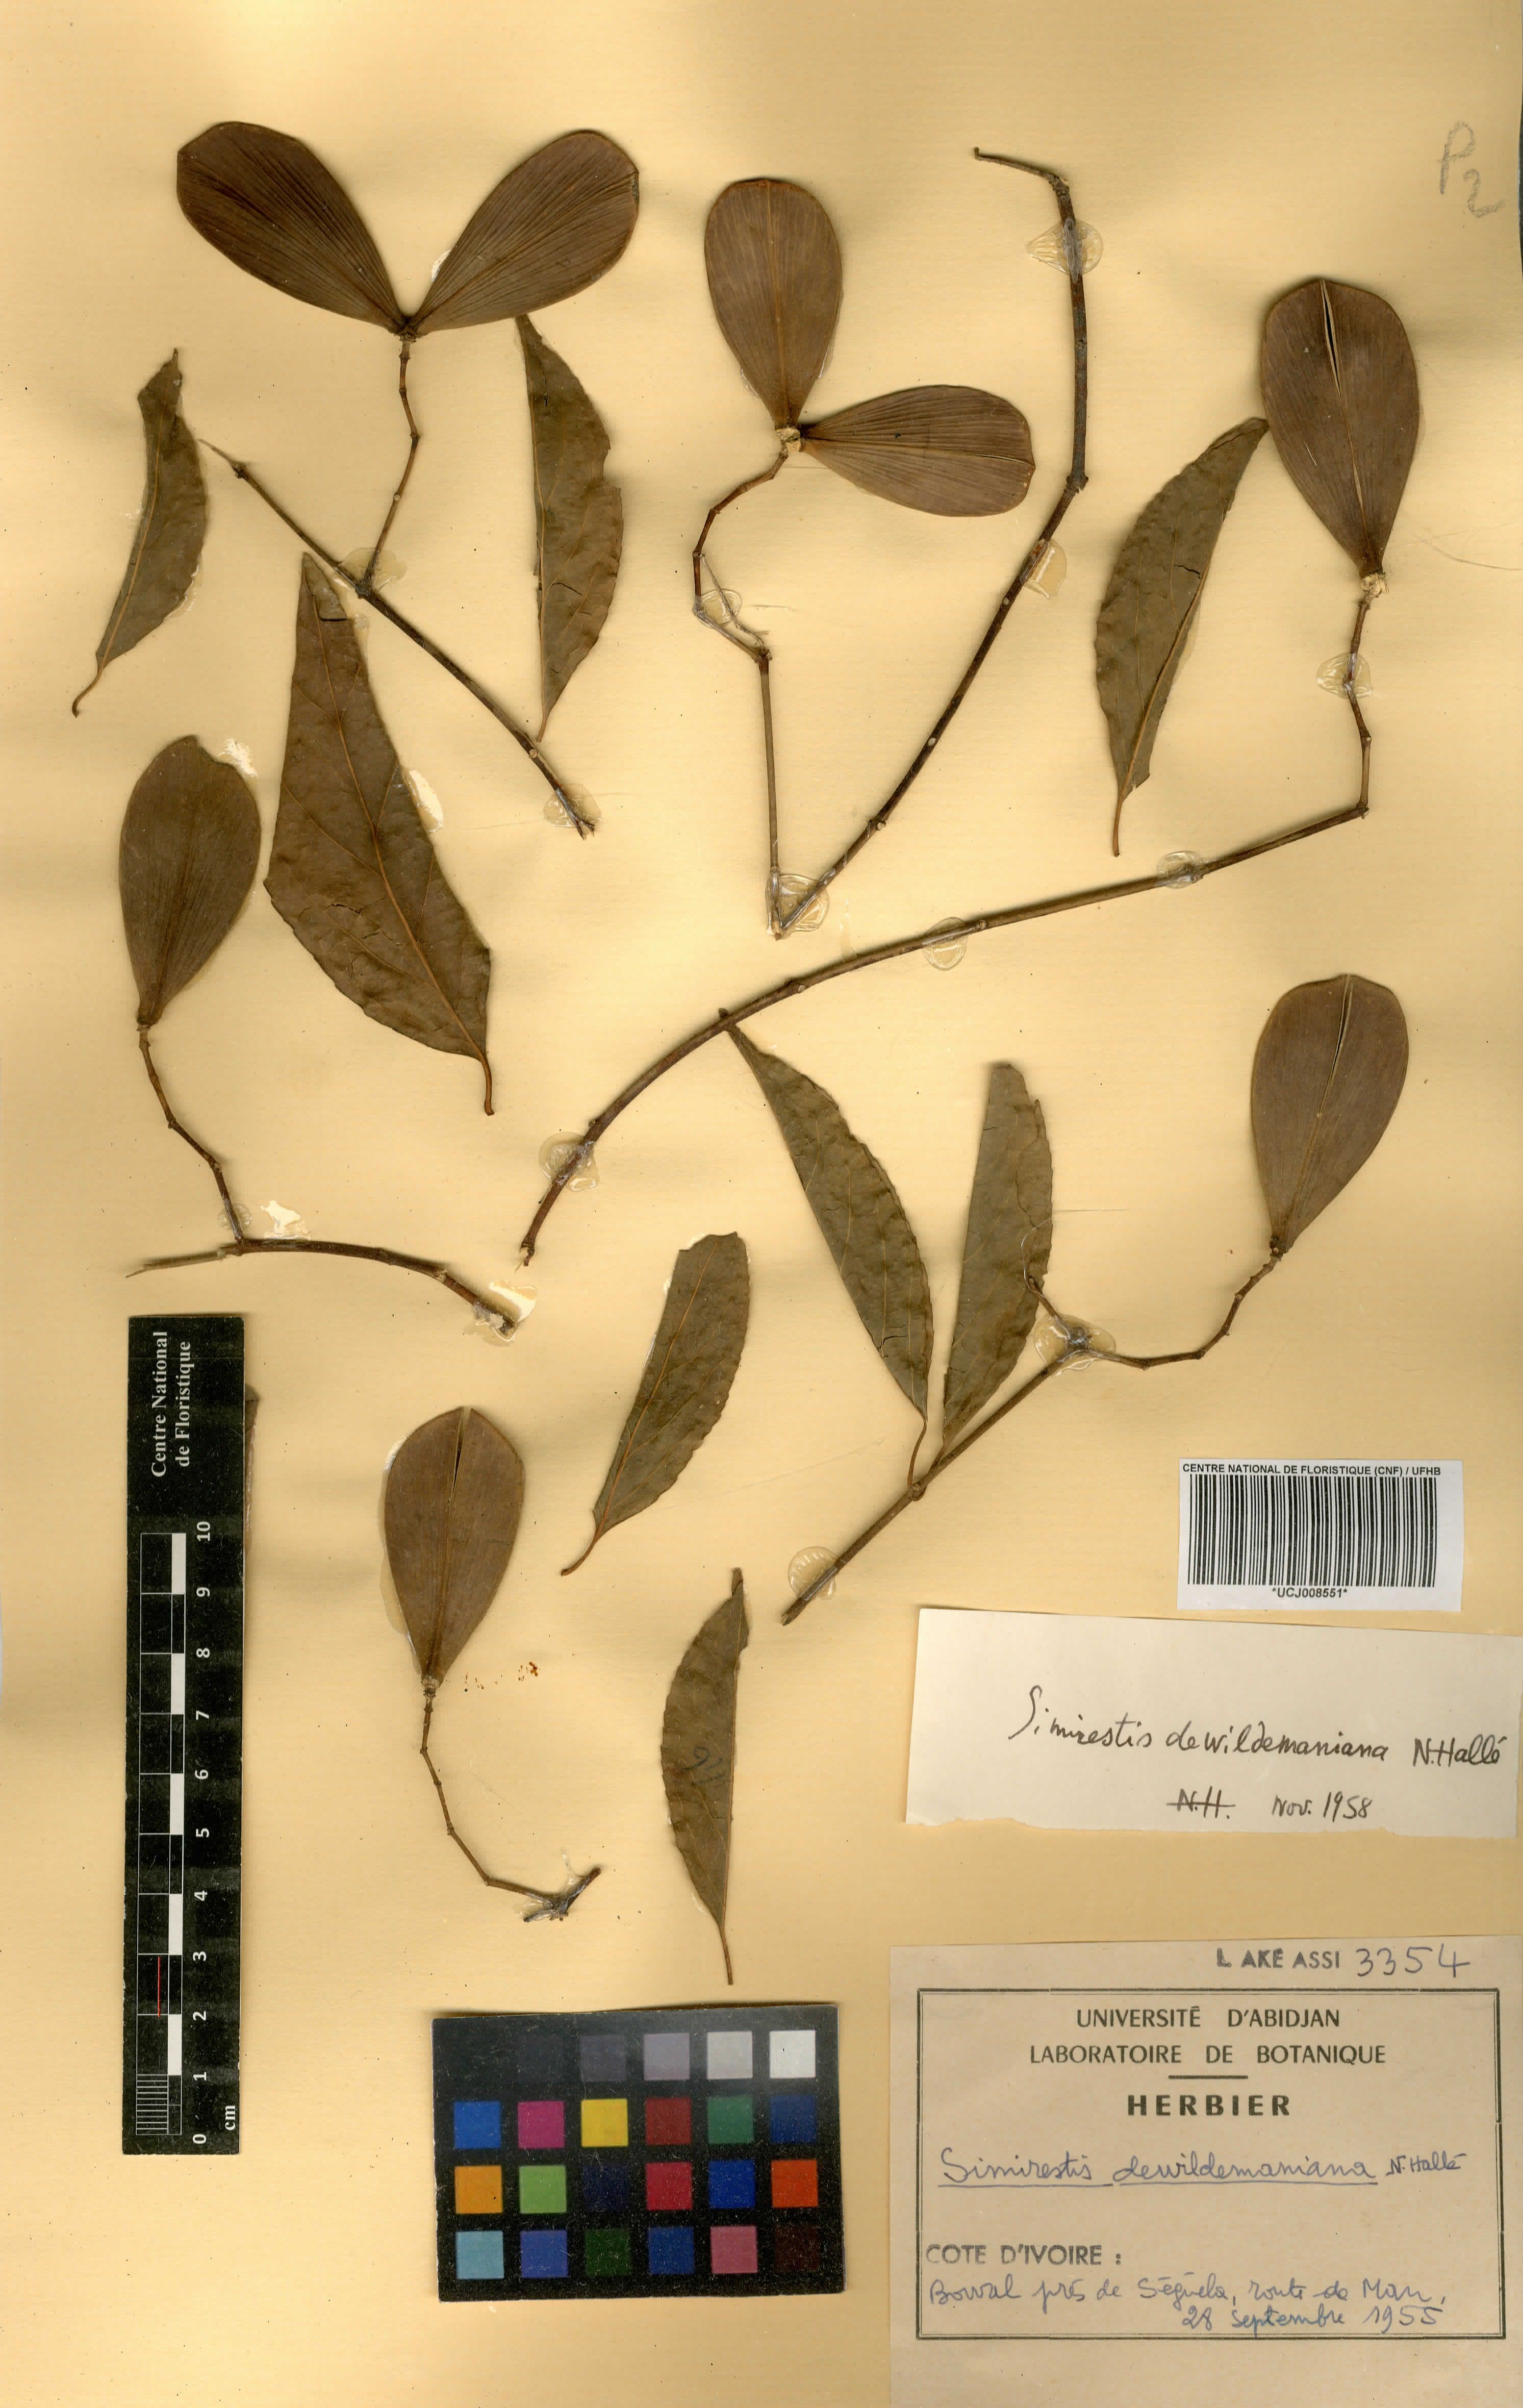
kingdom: Plantae
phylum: Tracheophyta
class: Magnoliopsida
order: Celastrales
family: Celastraceae
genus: Pristimera
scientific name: Pristimera dewildemaniana
